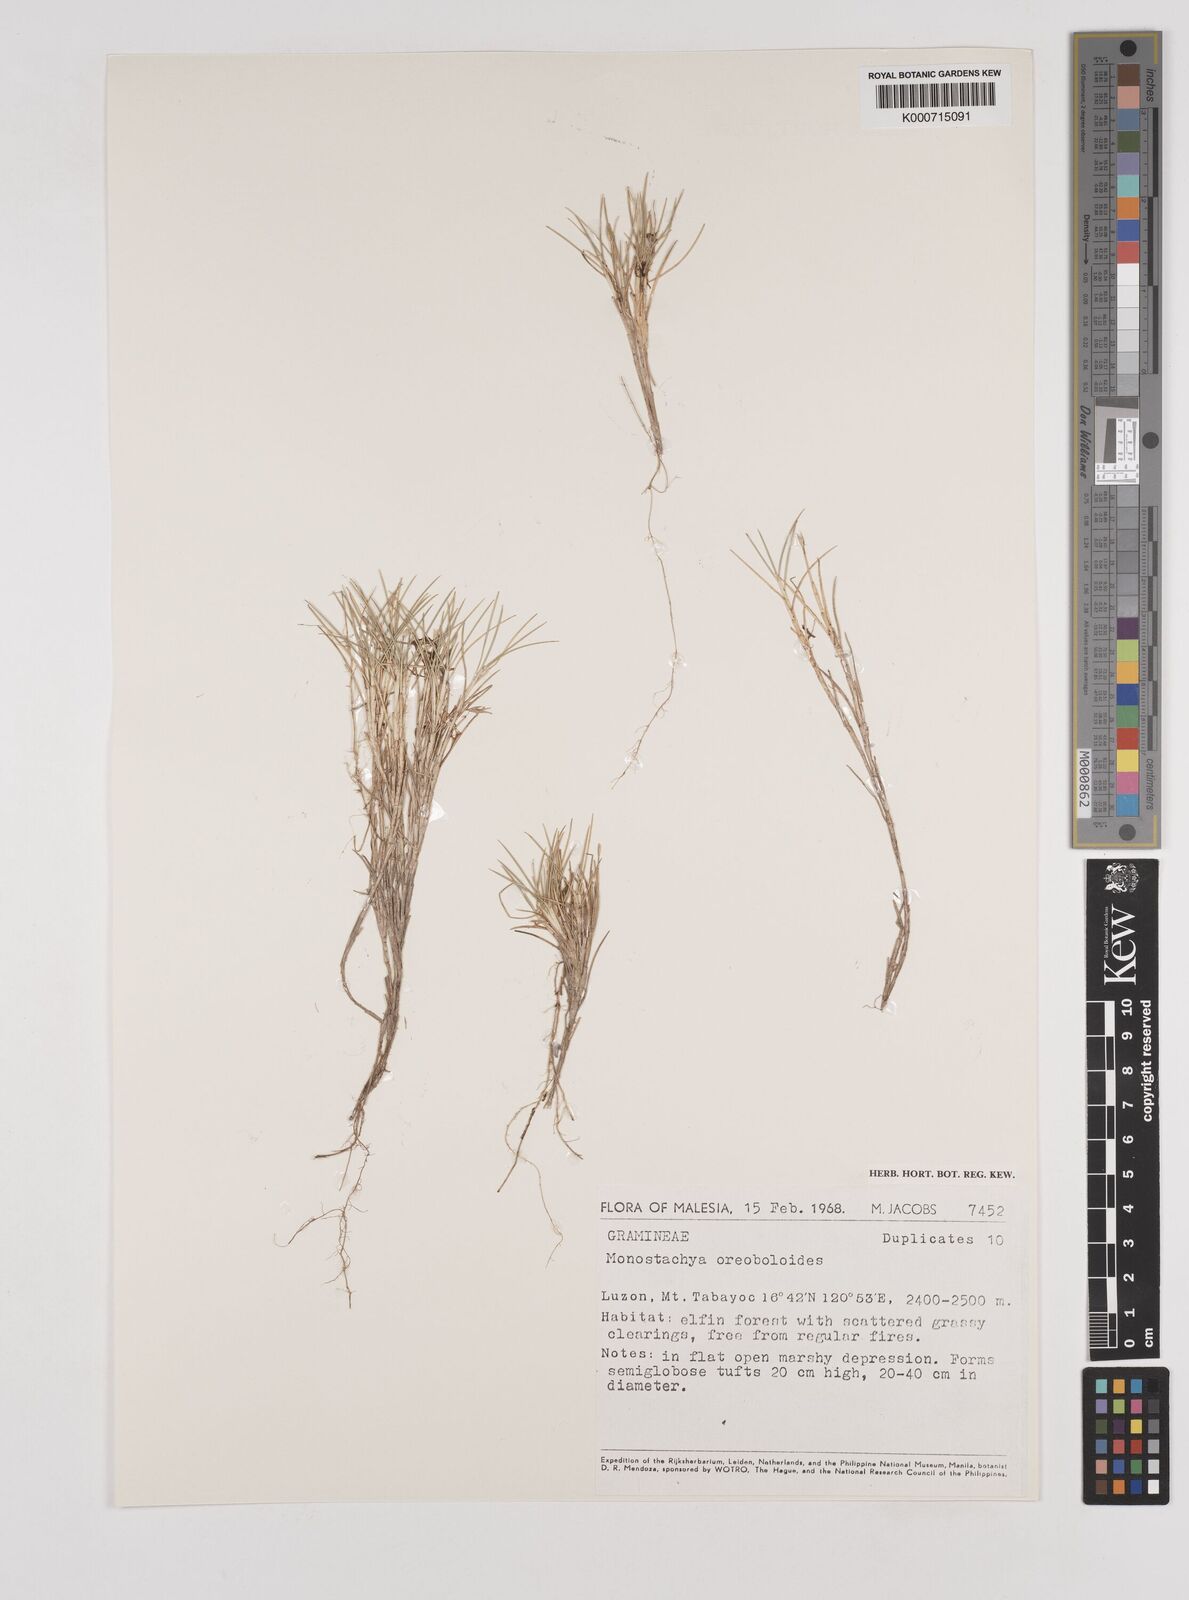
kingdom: Plantae
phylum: Tracheophyta
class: Liliopsida
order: Poales
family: Poaceae
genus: Rytidosperma
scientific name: Rytidosperma oreoboloides
